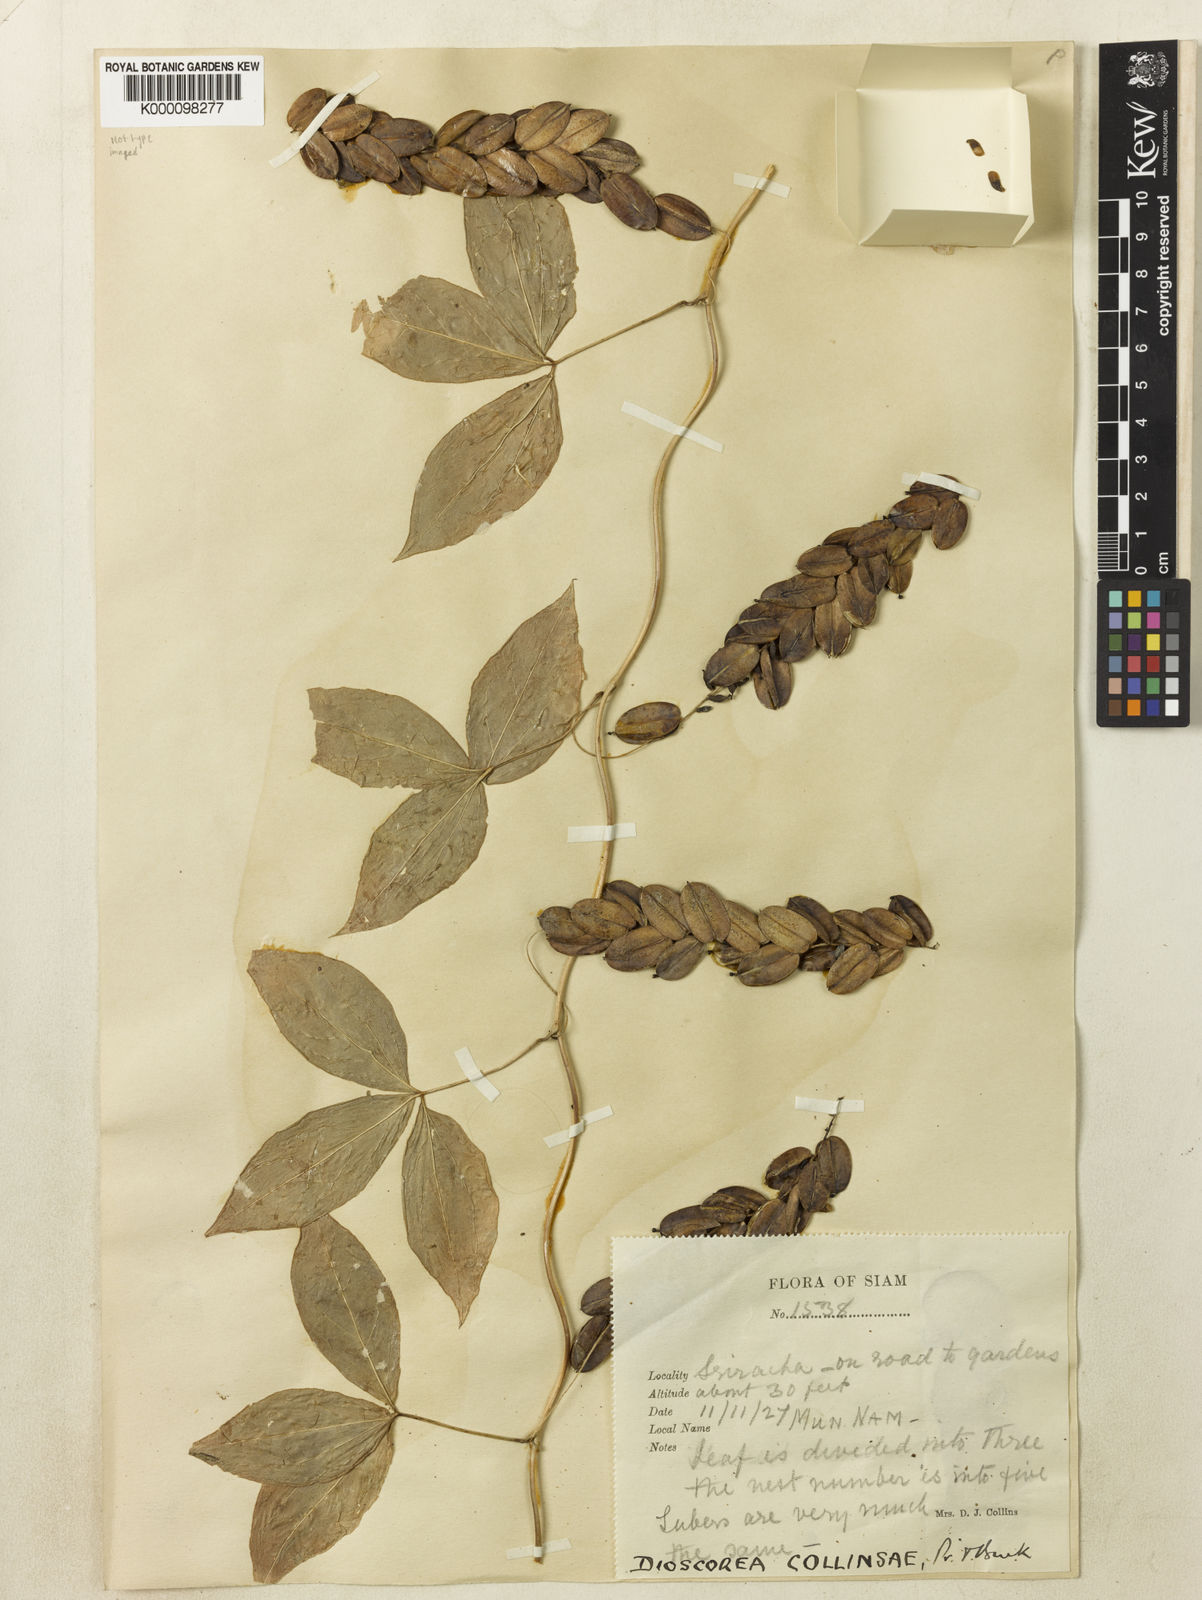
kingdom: Plantae
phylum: Tracheophyta
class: Liliopsida
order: Dioscoreales
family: Dioscoreaceae
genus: Dioscorea
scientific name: Dioscorea arachidna
